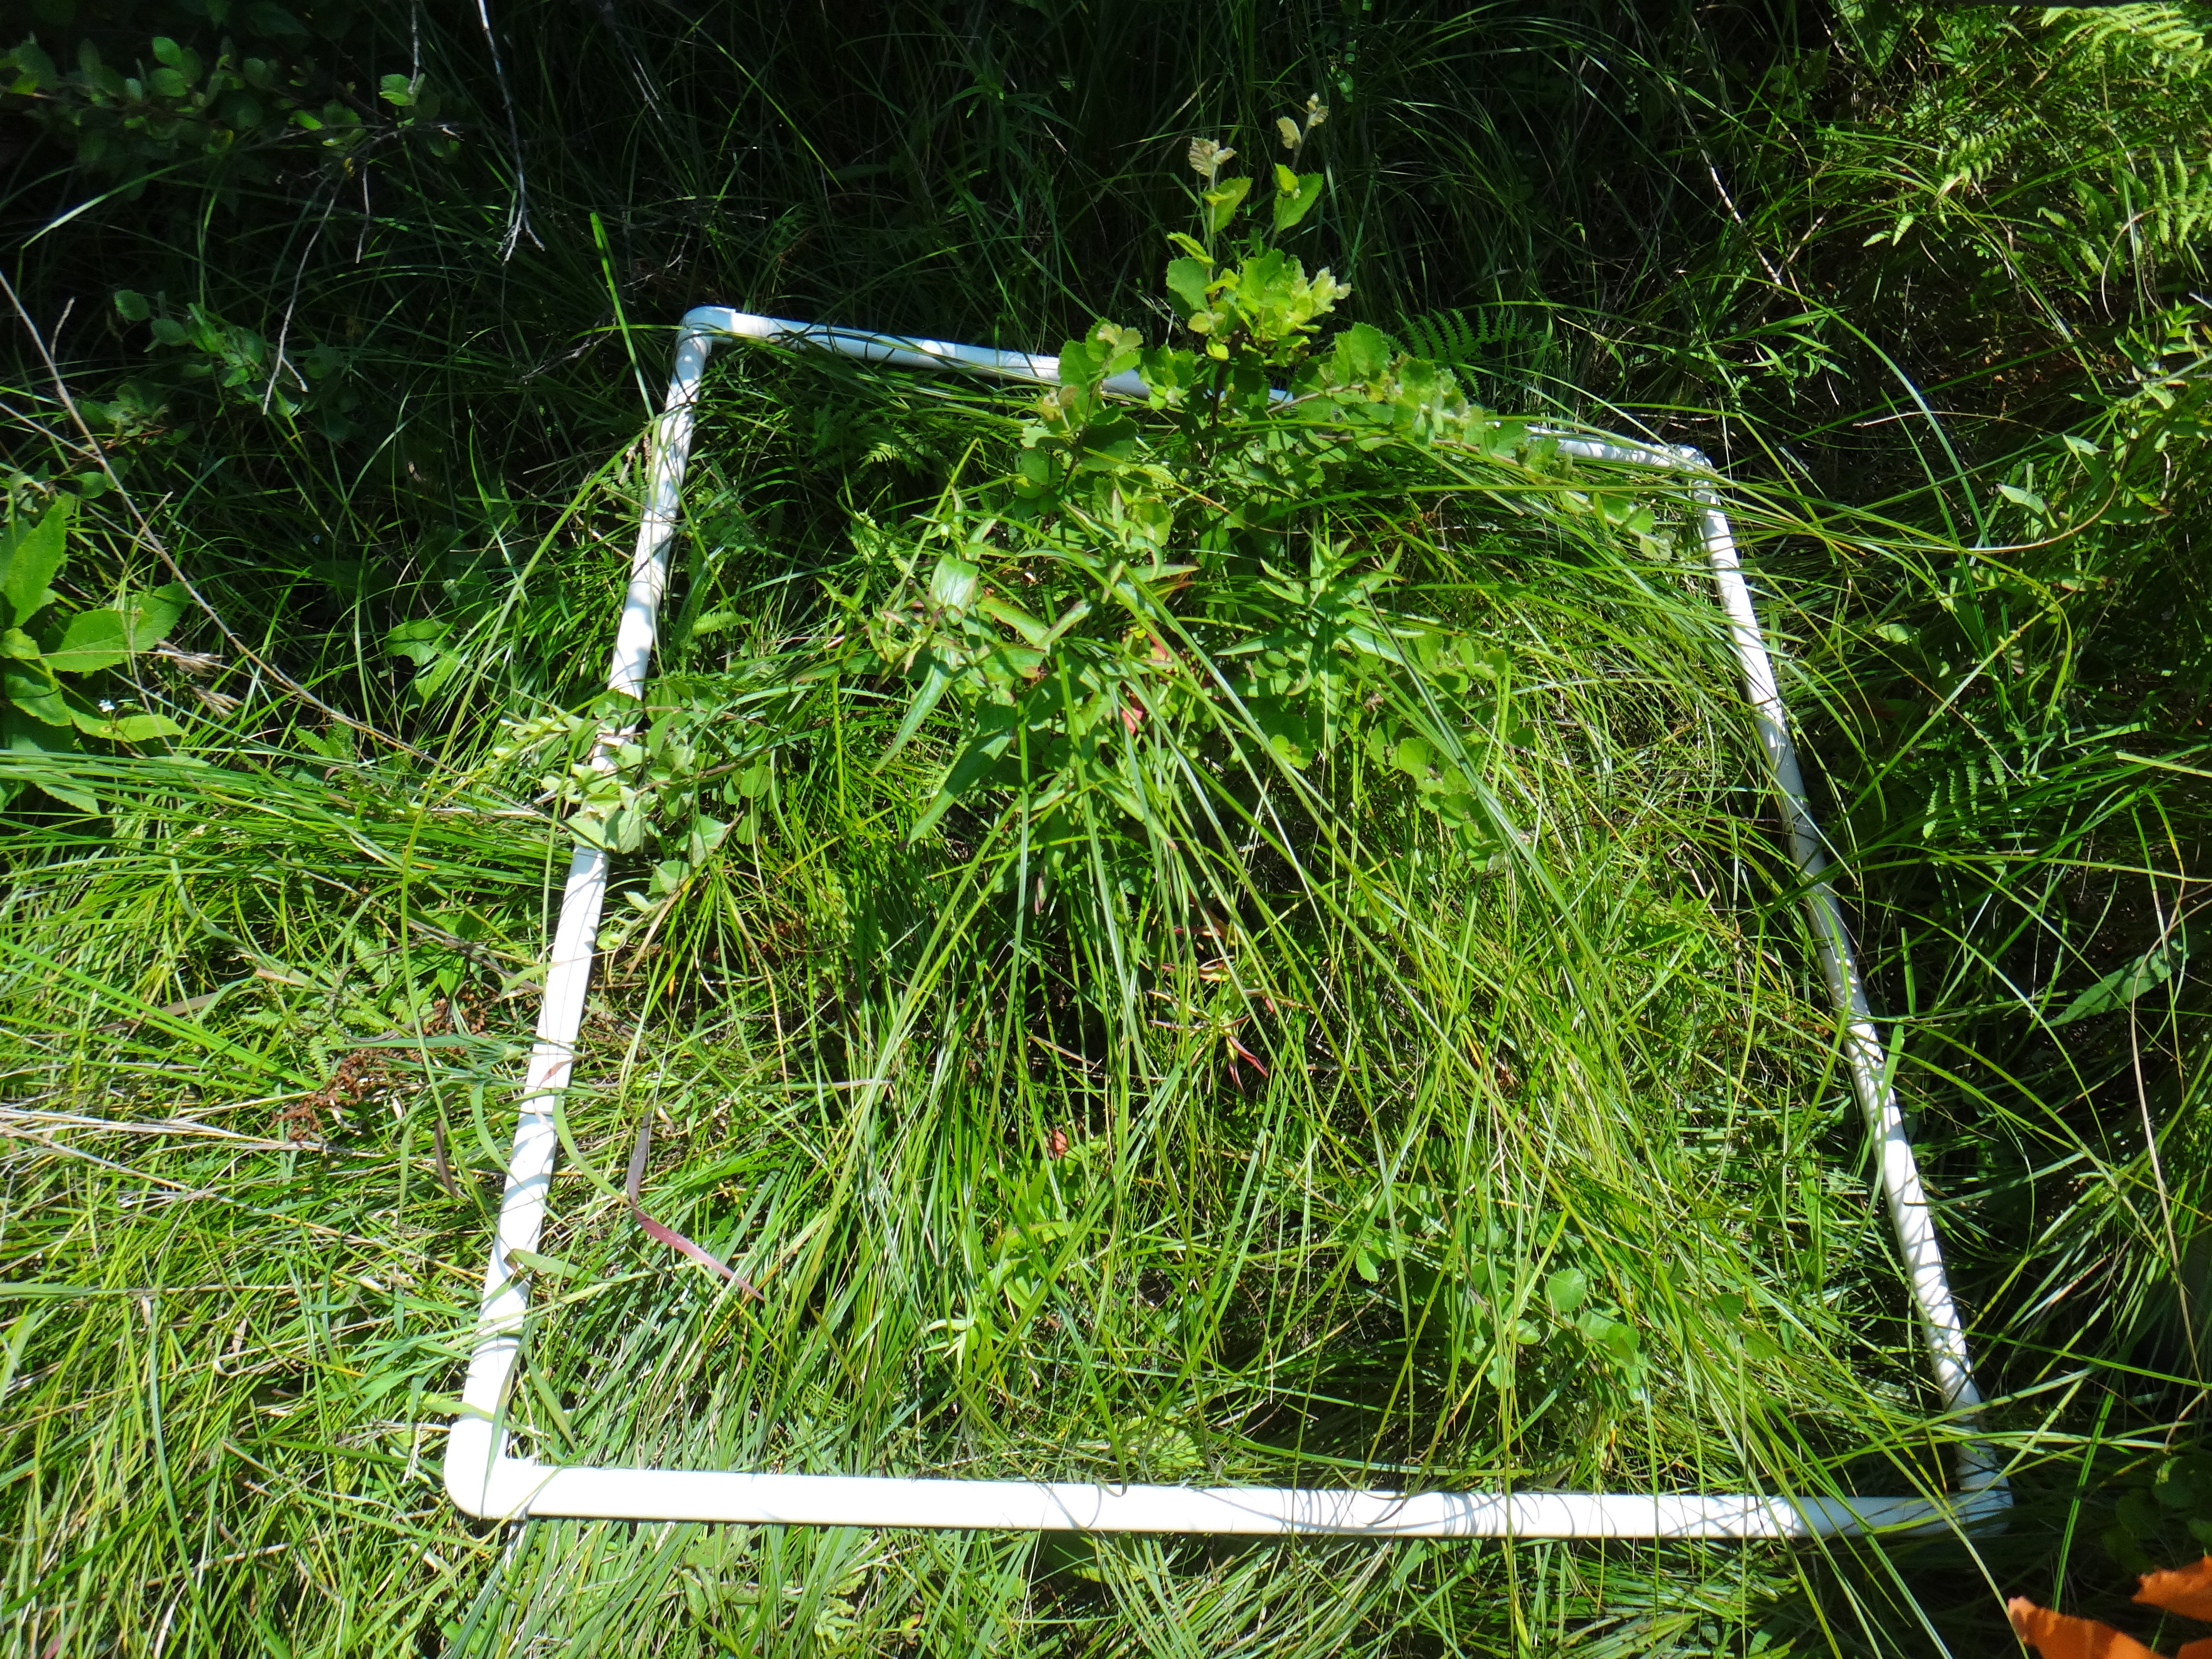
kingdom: Plantae
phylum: Tracheophyta
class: Polypodiopsida
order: Equisetales
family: Equisetaceae
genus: Equisetum
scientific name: Equisetum fluviatile
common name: Water horsetail
